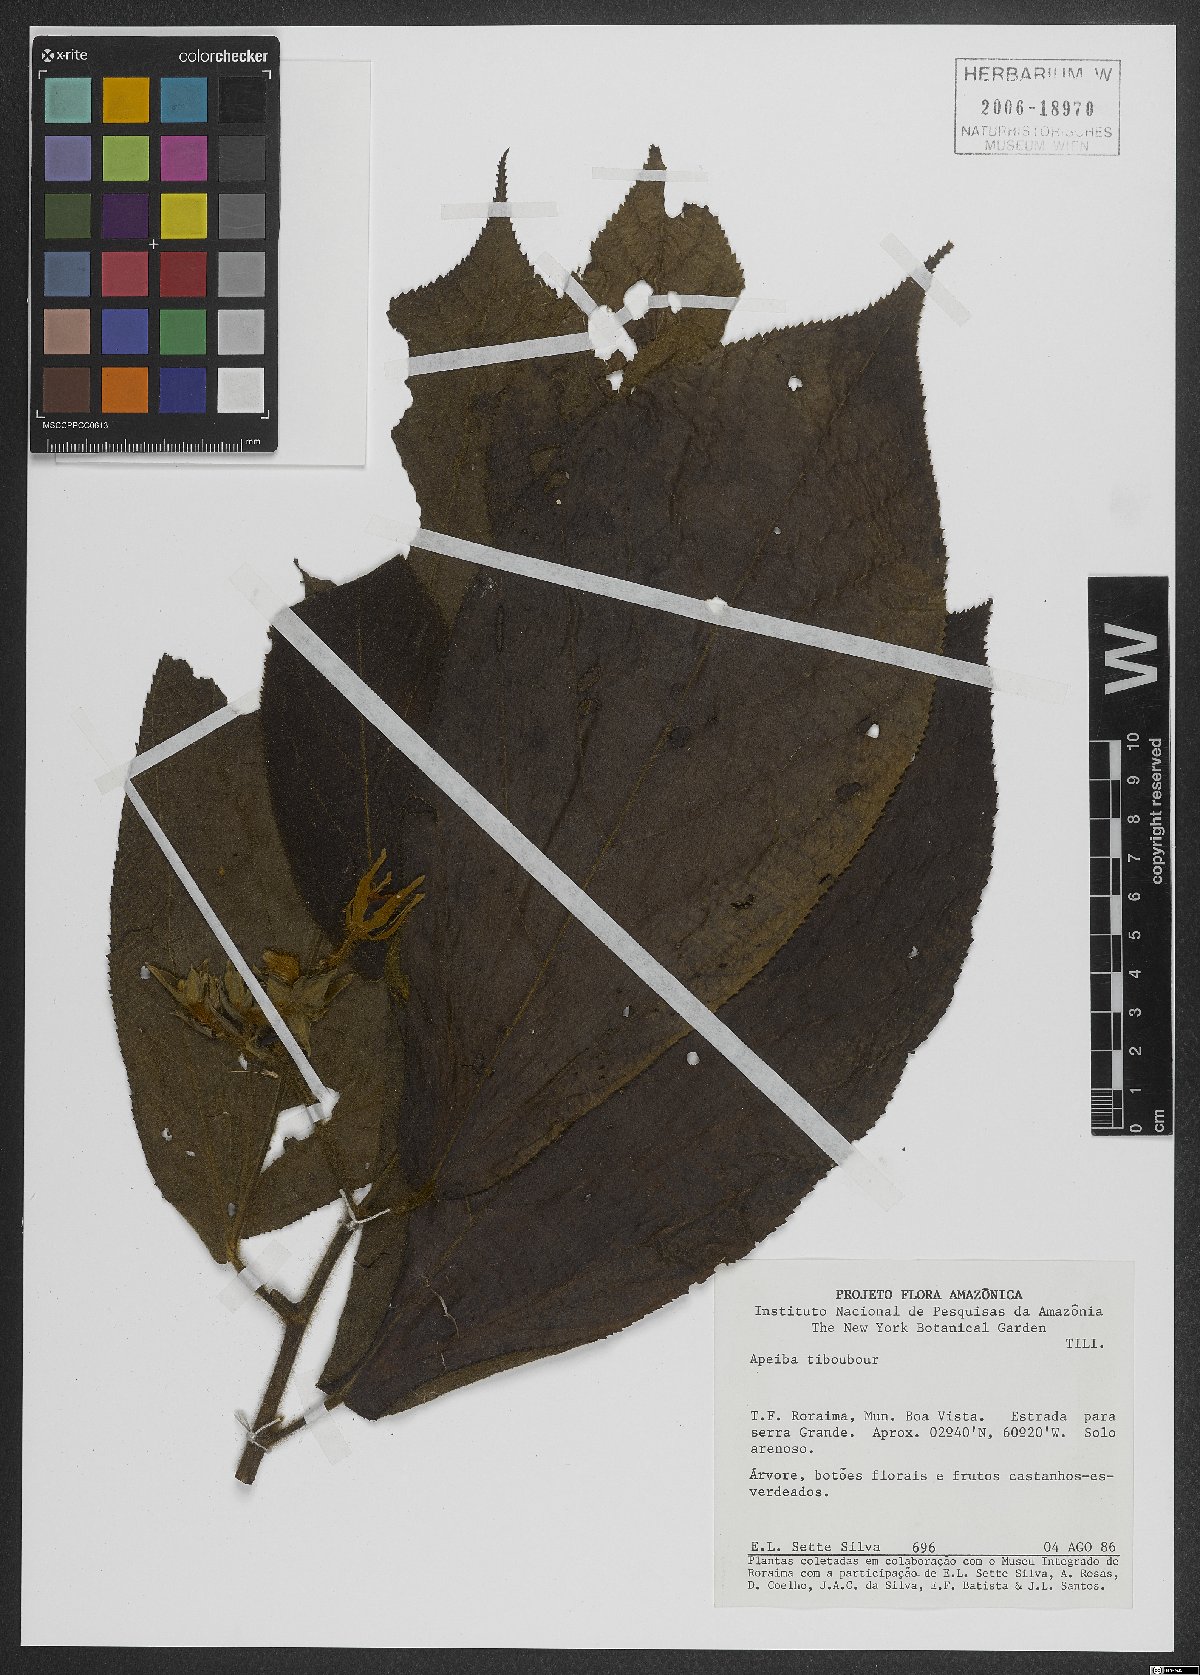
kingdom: Plantae
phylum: Tracheophyta
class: Magnoliopsida
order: Malvales
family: Malvaceae
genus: Apeiba
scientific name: Apeiba tibourbou
